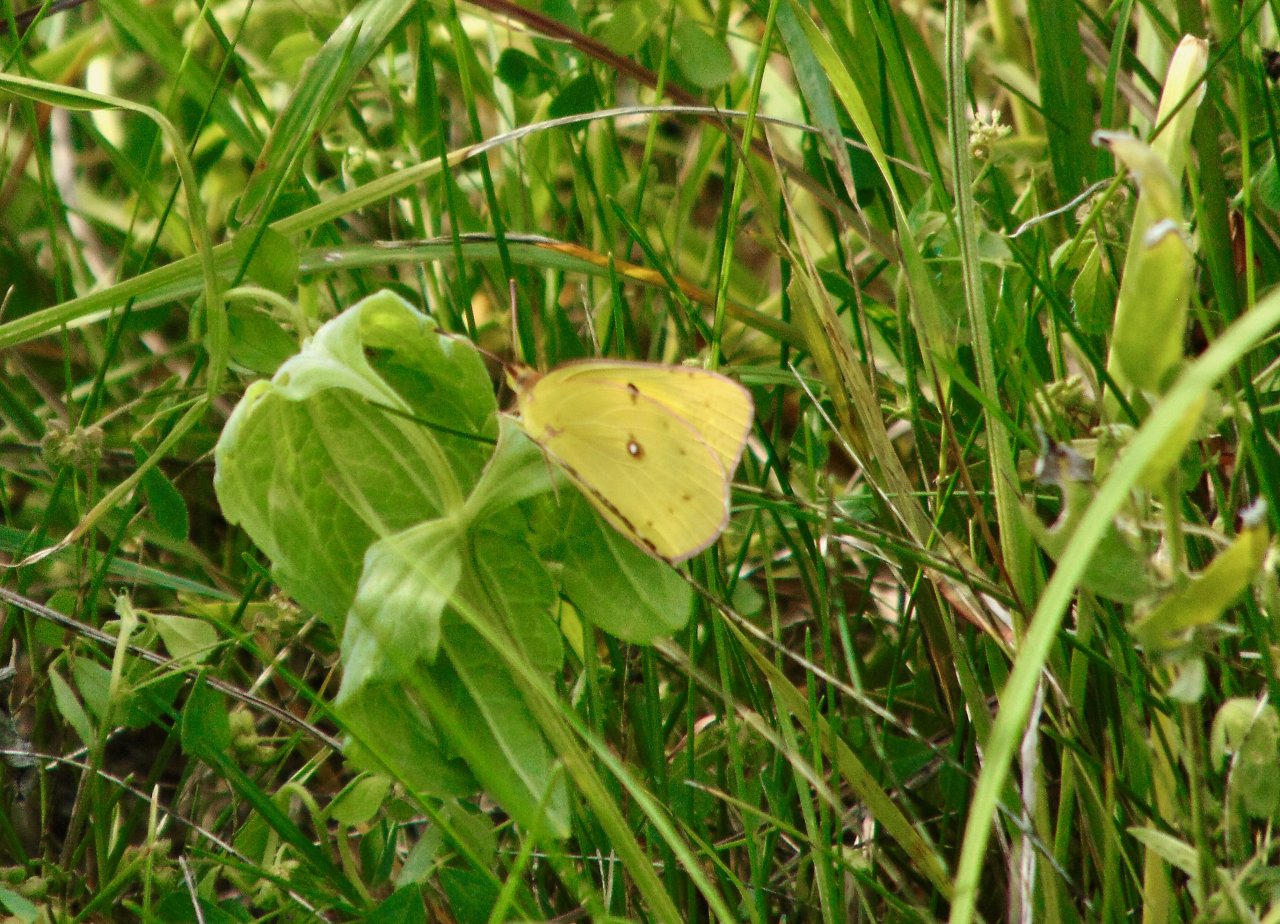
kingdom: Animalia
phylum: Arthropoda
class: Insecta
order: Lepidoptera
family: Pieridae
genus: Colias
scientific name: Colias philodice
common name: Clouded Sulphur
